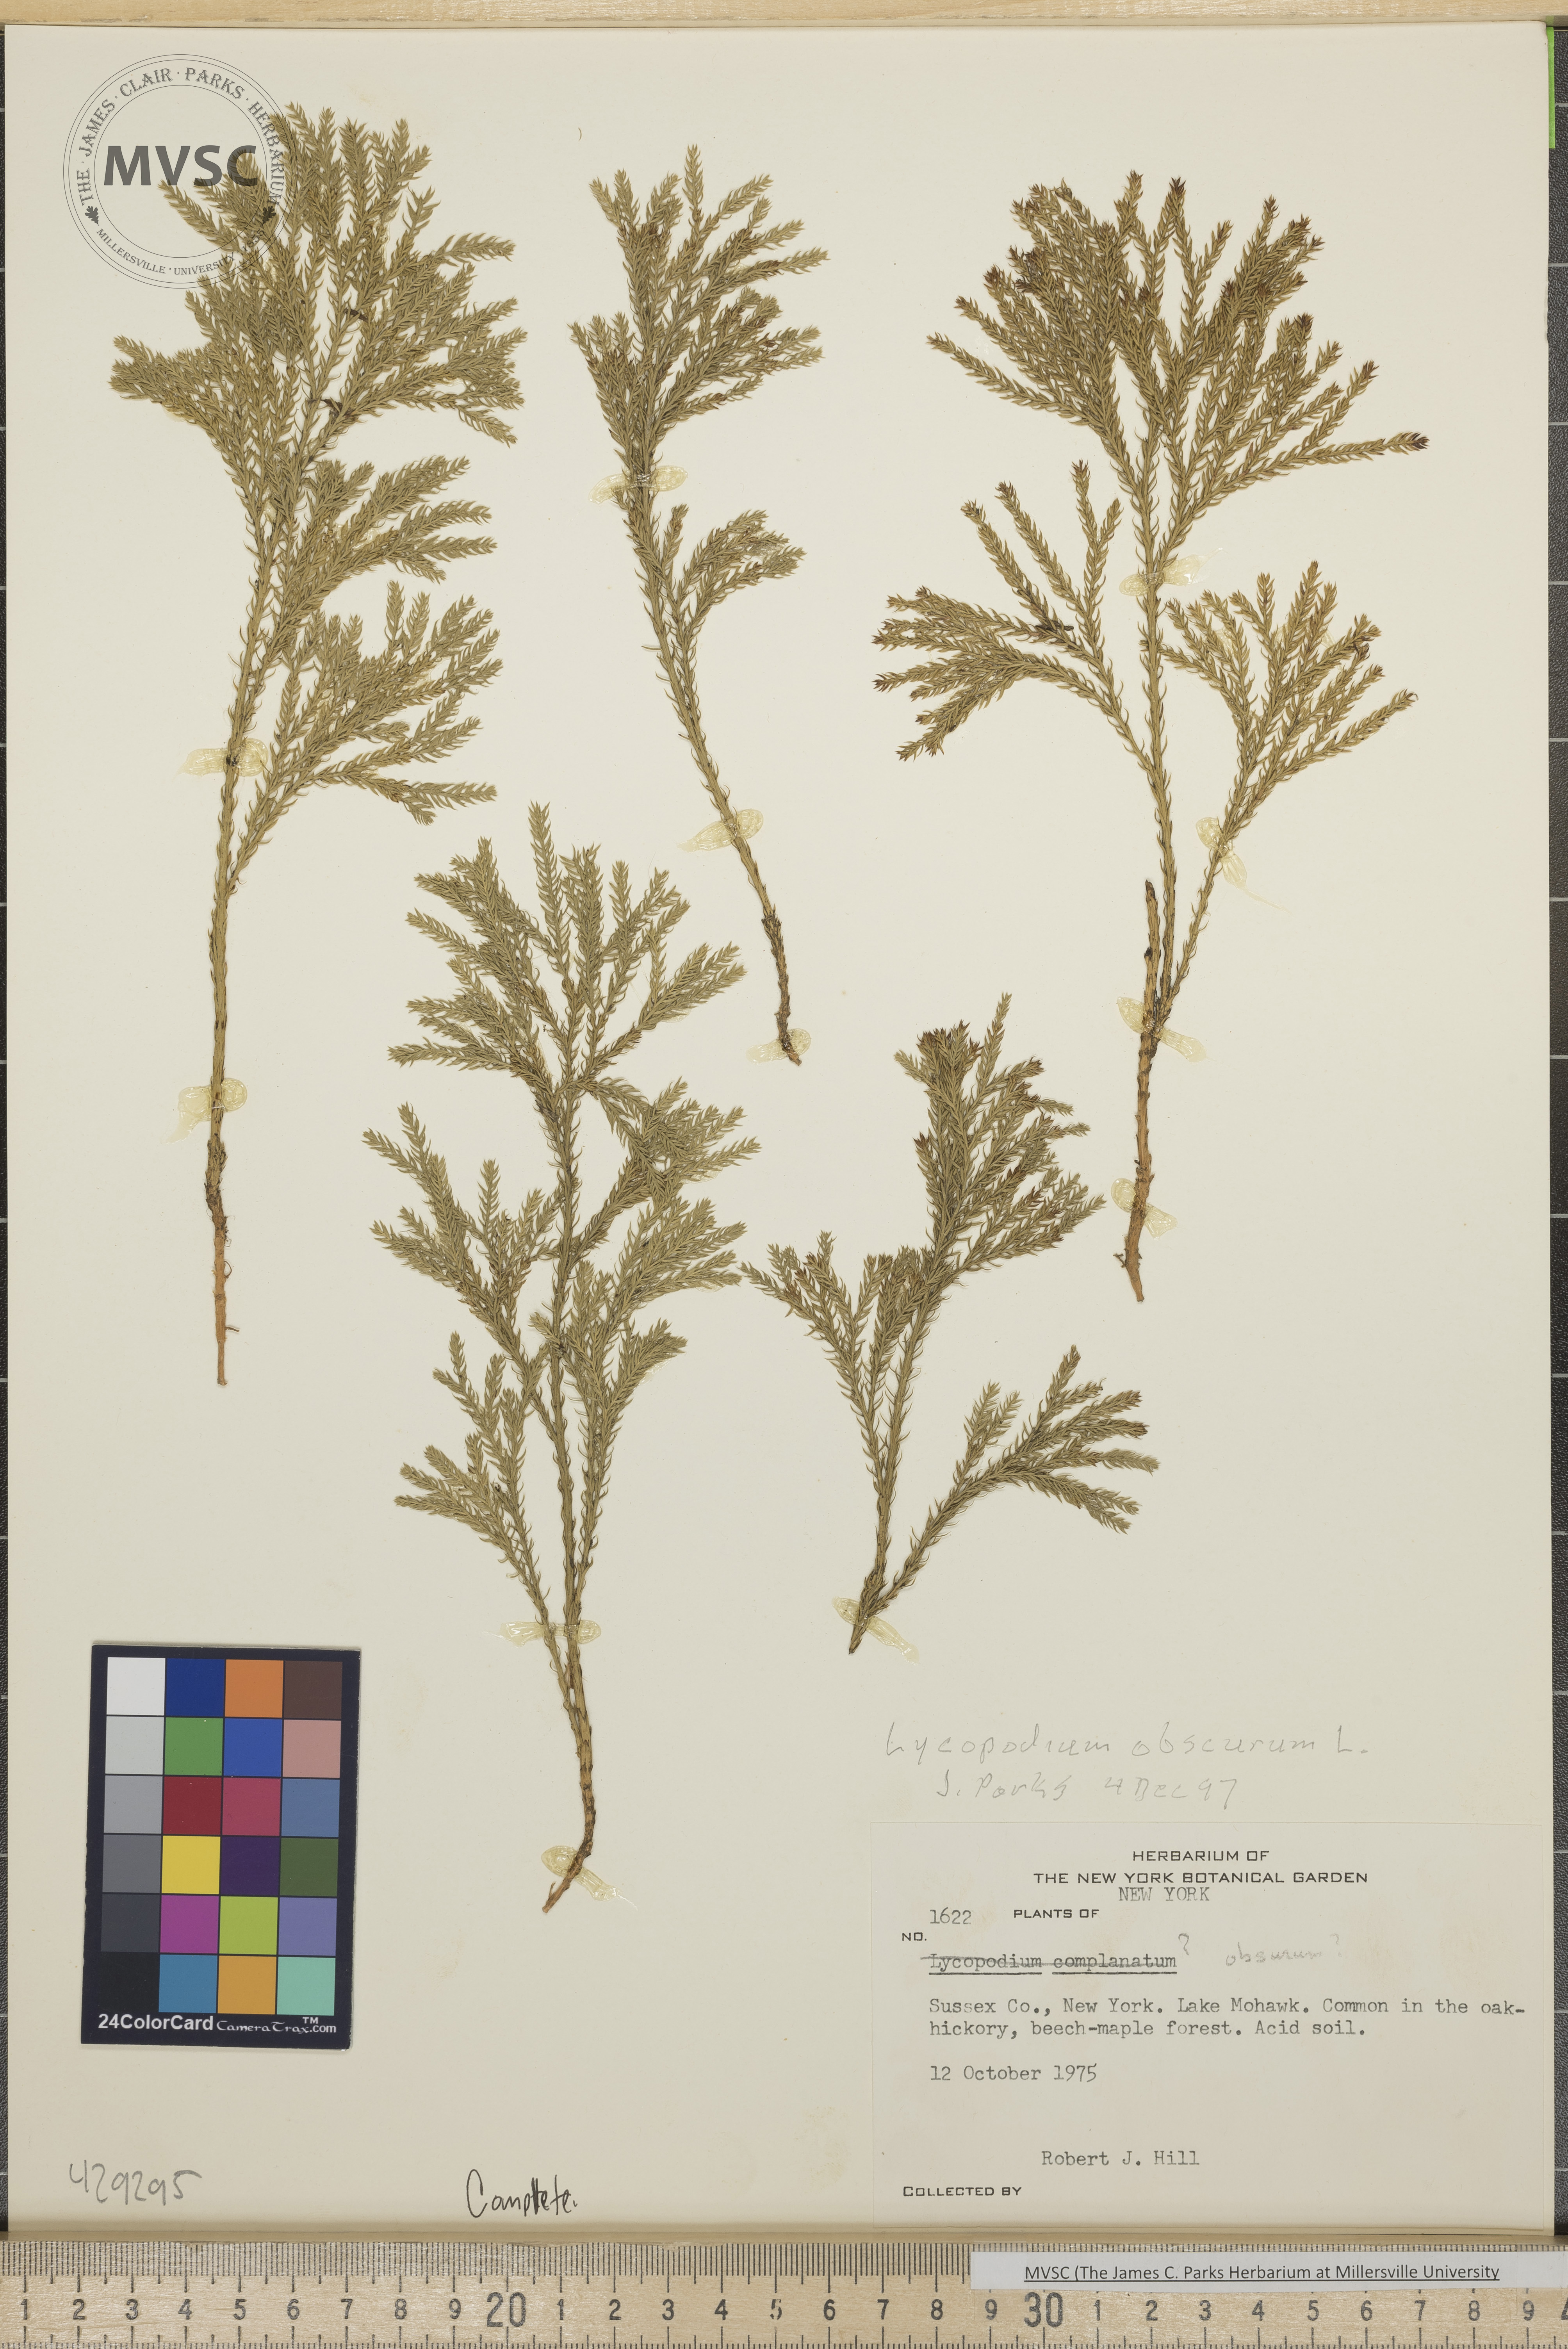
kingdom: Plantae
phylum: Tracheophyta
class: Lycopodiopsida
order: Lycopodiales
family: Lycopodiaceae
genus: Dendrolycopodium
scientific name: Dendrolycopodium obscurum
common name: Common ground-pine
